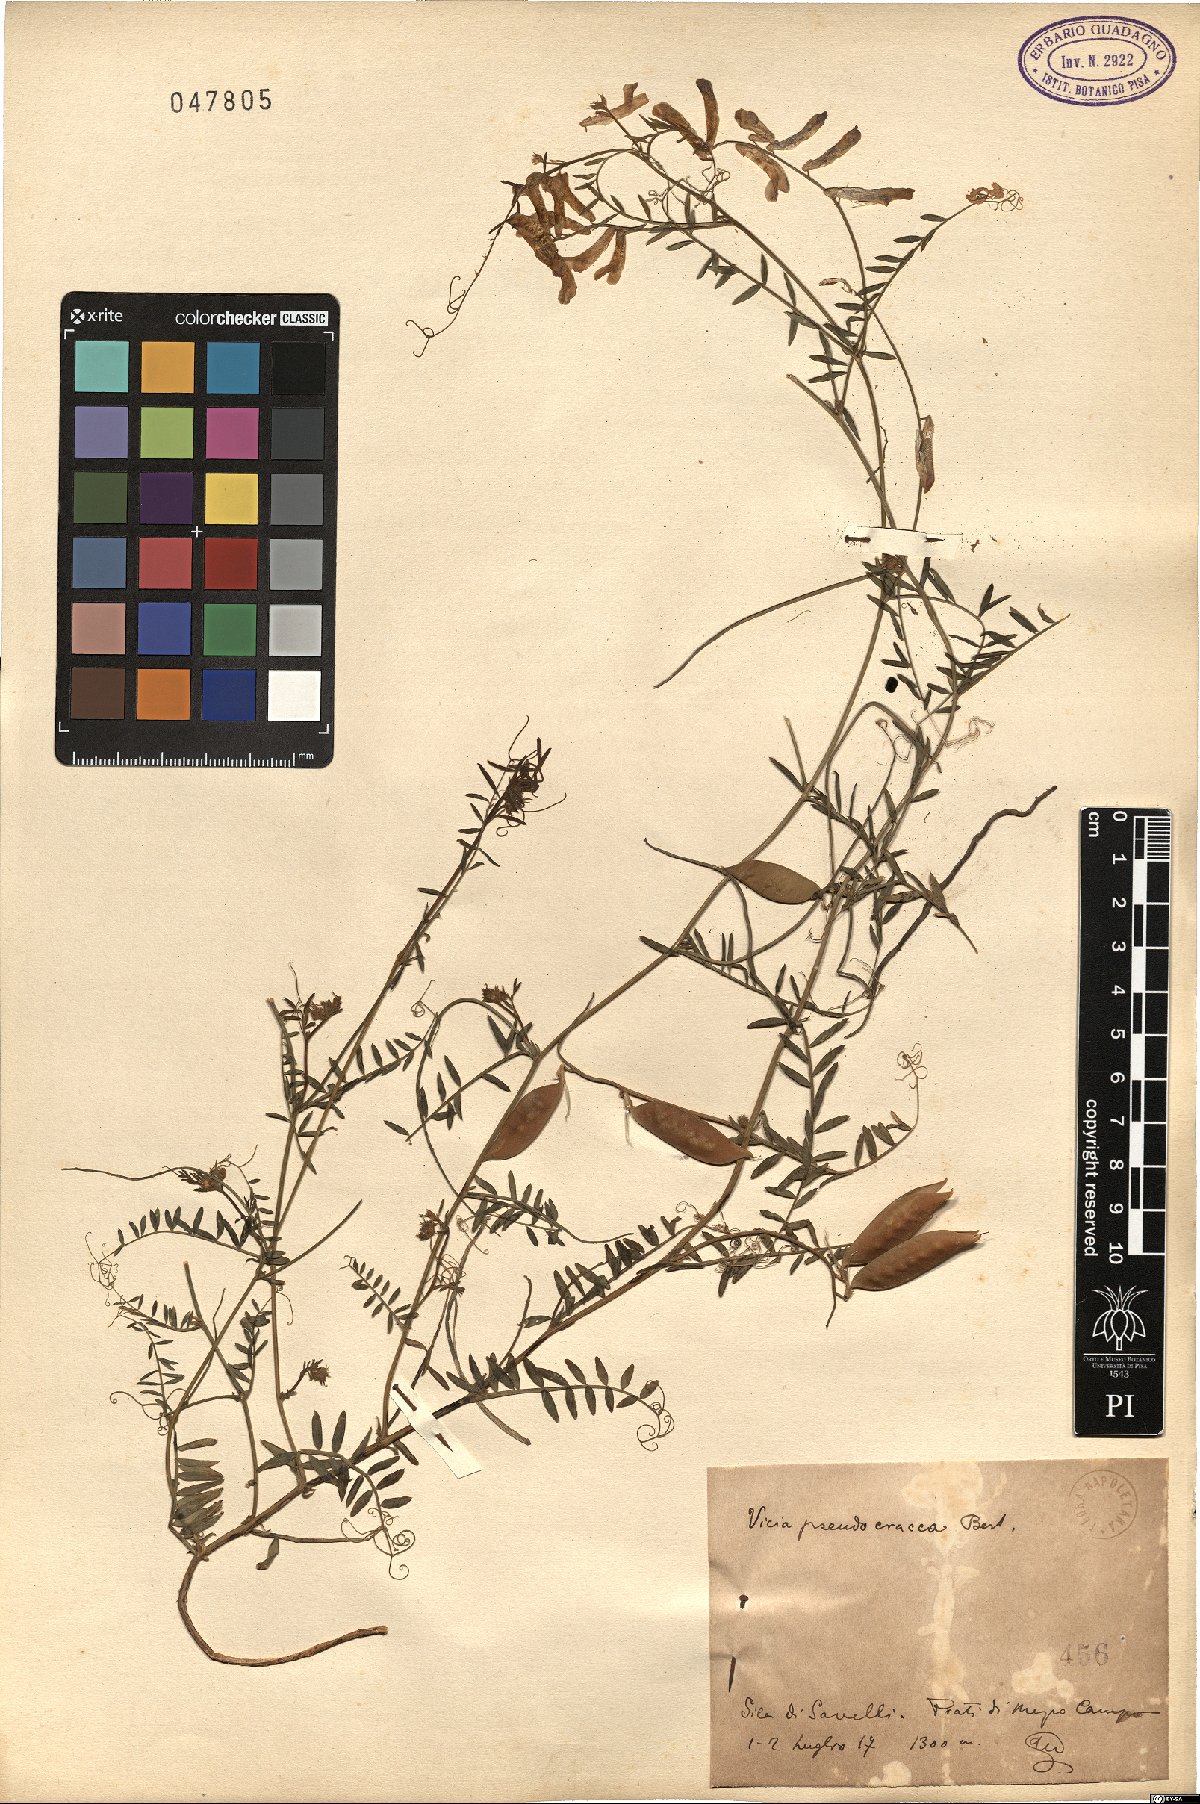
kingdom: Plantae
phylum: Tracheophyta
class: Magnoliopsida
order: Fabales
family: Fabaceae
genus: Vicia
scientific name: Vicia villosa
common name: Fodder vetch
